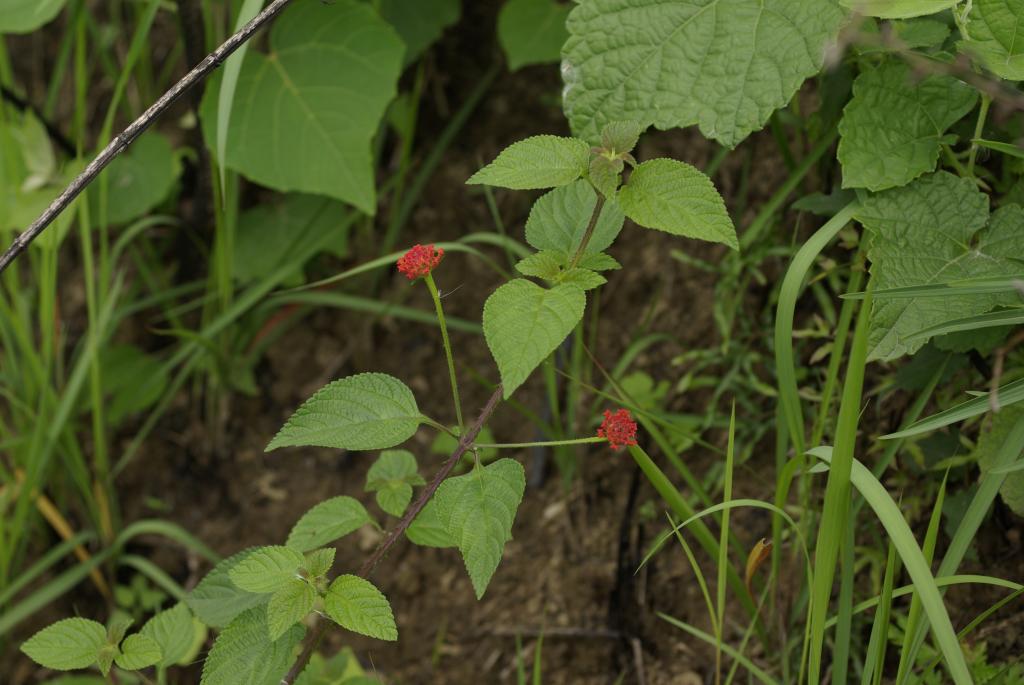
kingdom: Plantae
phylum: Tracheophyta
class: Magnoliopsida
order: Lamiales
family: Verbenaceae
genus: Lantana
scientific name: Lantana camara
